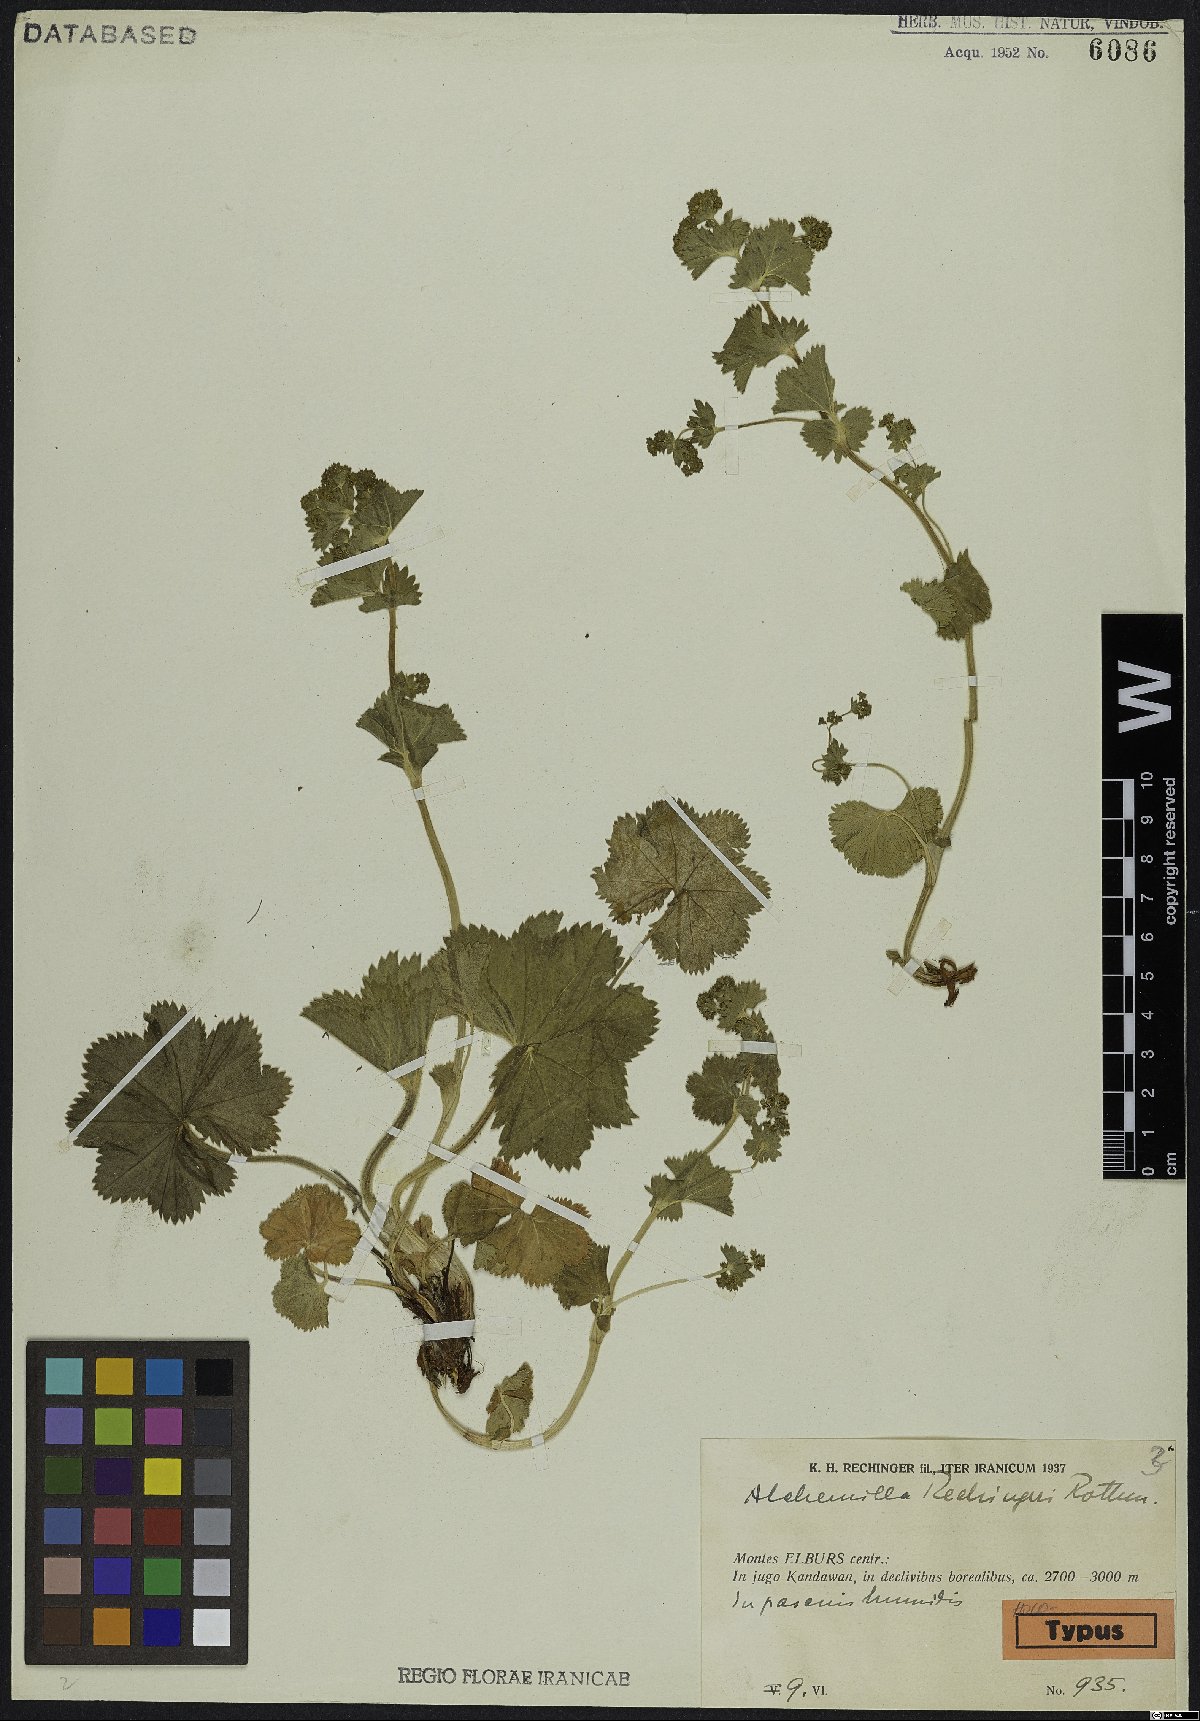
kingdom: Plantae
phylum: Tracheophyta
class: Magnoliopsida
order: Rosales
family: Rosaceae
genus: Alchemilla
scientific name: Alchemilla compactilis
